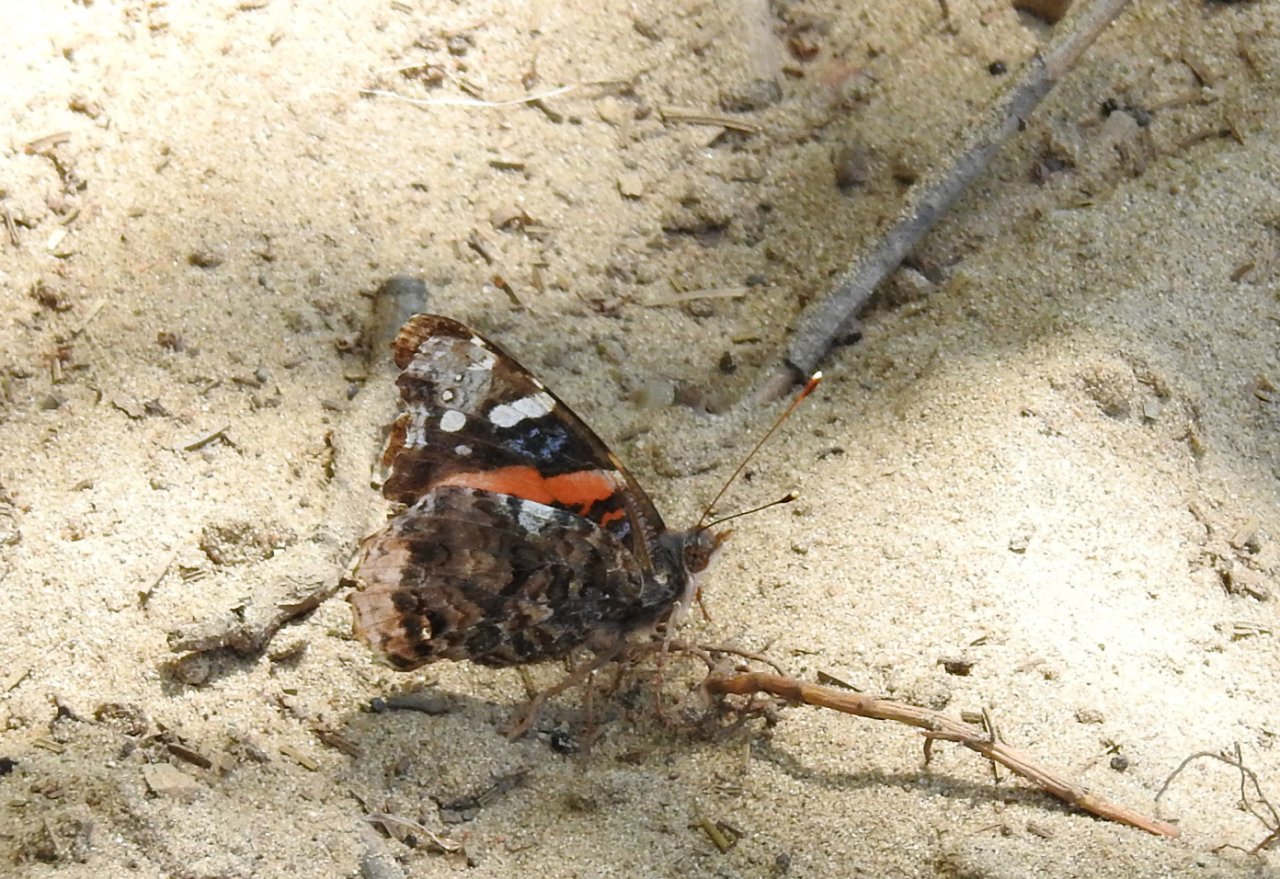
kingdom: Animalia
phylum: Arthropoda
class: Insecta
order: Lepidoptera
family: Nymphalidae
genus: Vanessa
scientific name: Vanessa atalanta
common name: Red Admiral
